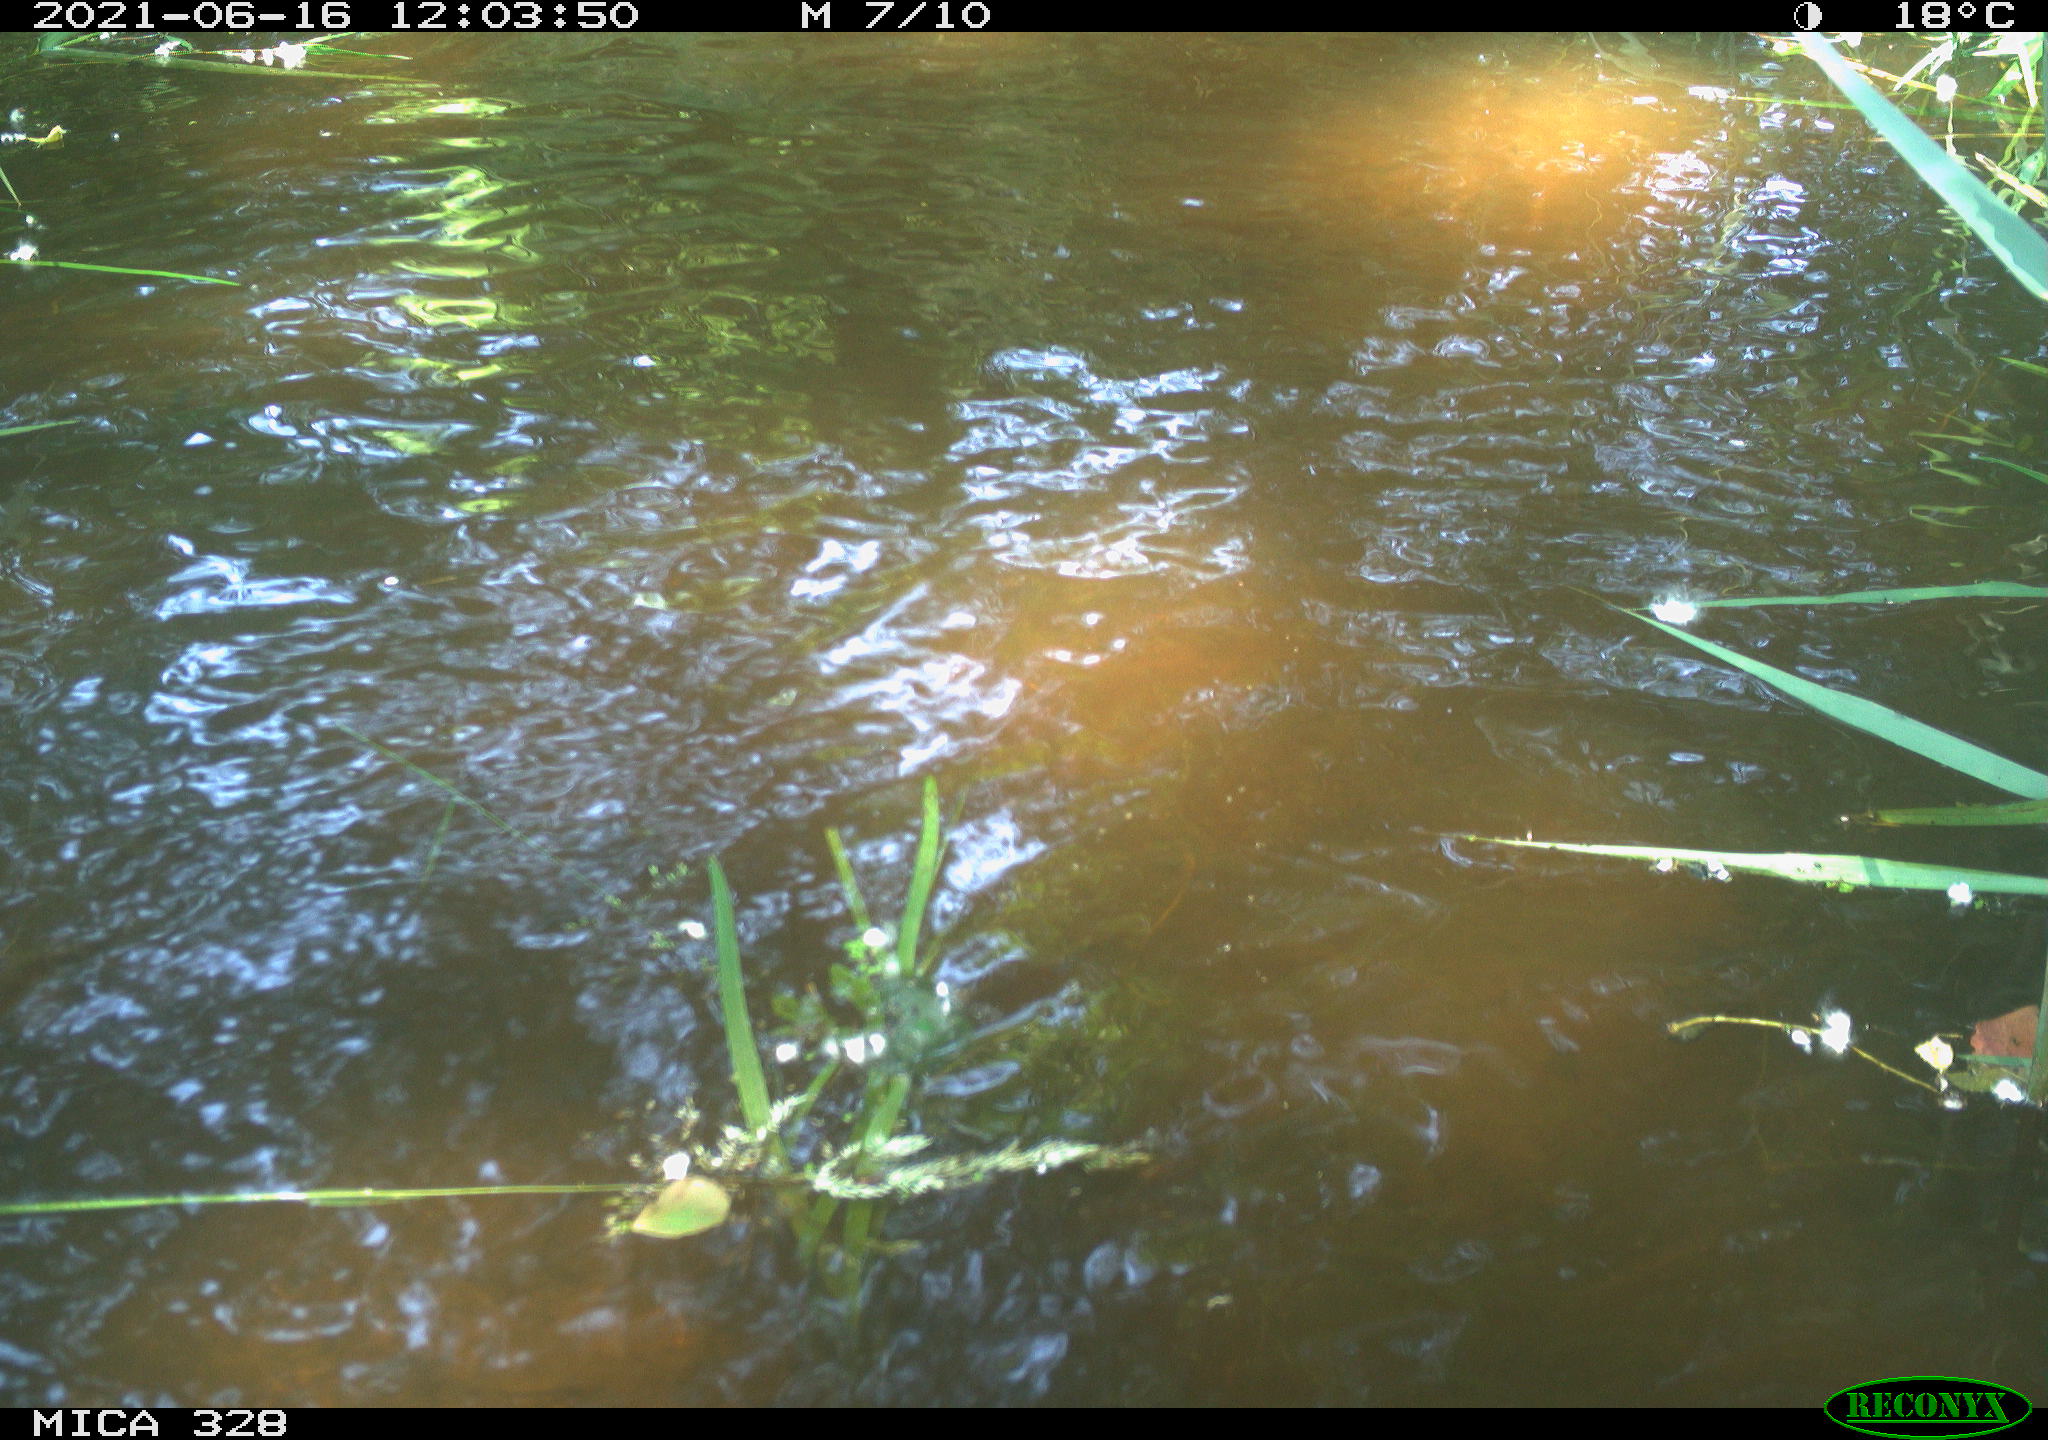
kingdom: Animalia
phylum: Chordata
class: Aves
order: Anseriformes
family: Anatidae
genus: Aix
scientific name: Aix galericulata
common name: Mandarin duck
